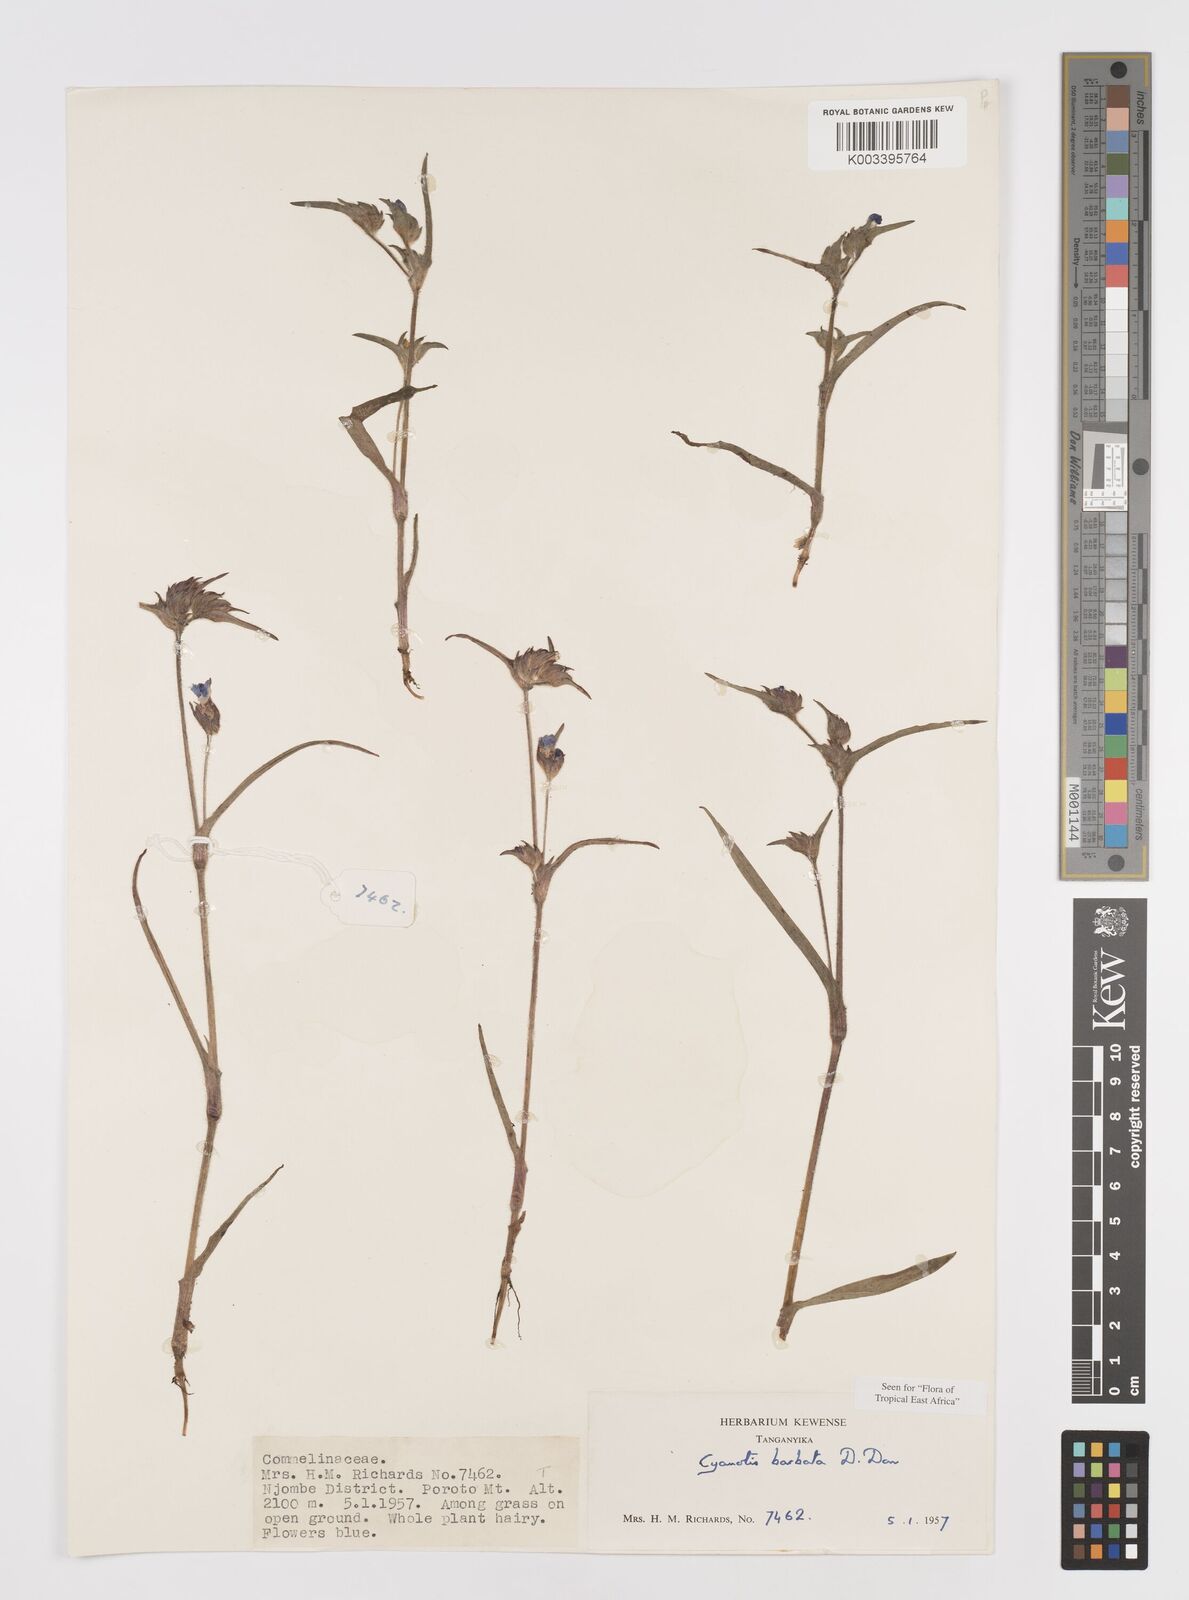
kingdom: Plantae
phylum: Tracheophyta
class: Liliopsida
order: Commelinales
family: Commelinaceae
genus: Cyanotis
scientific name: Cyanotis vaga
